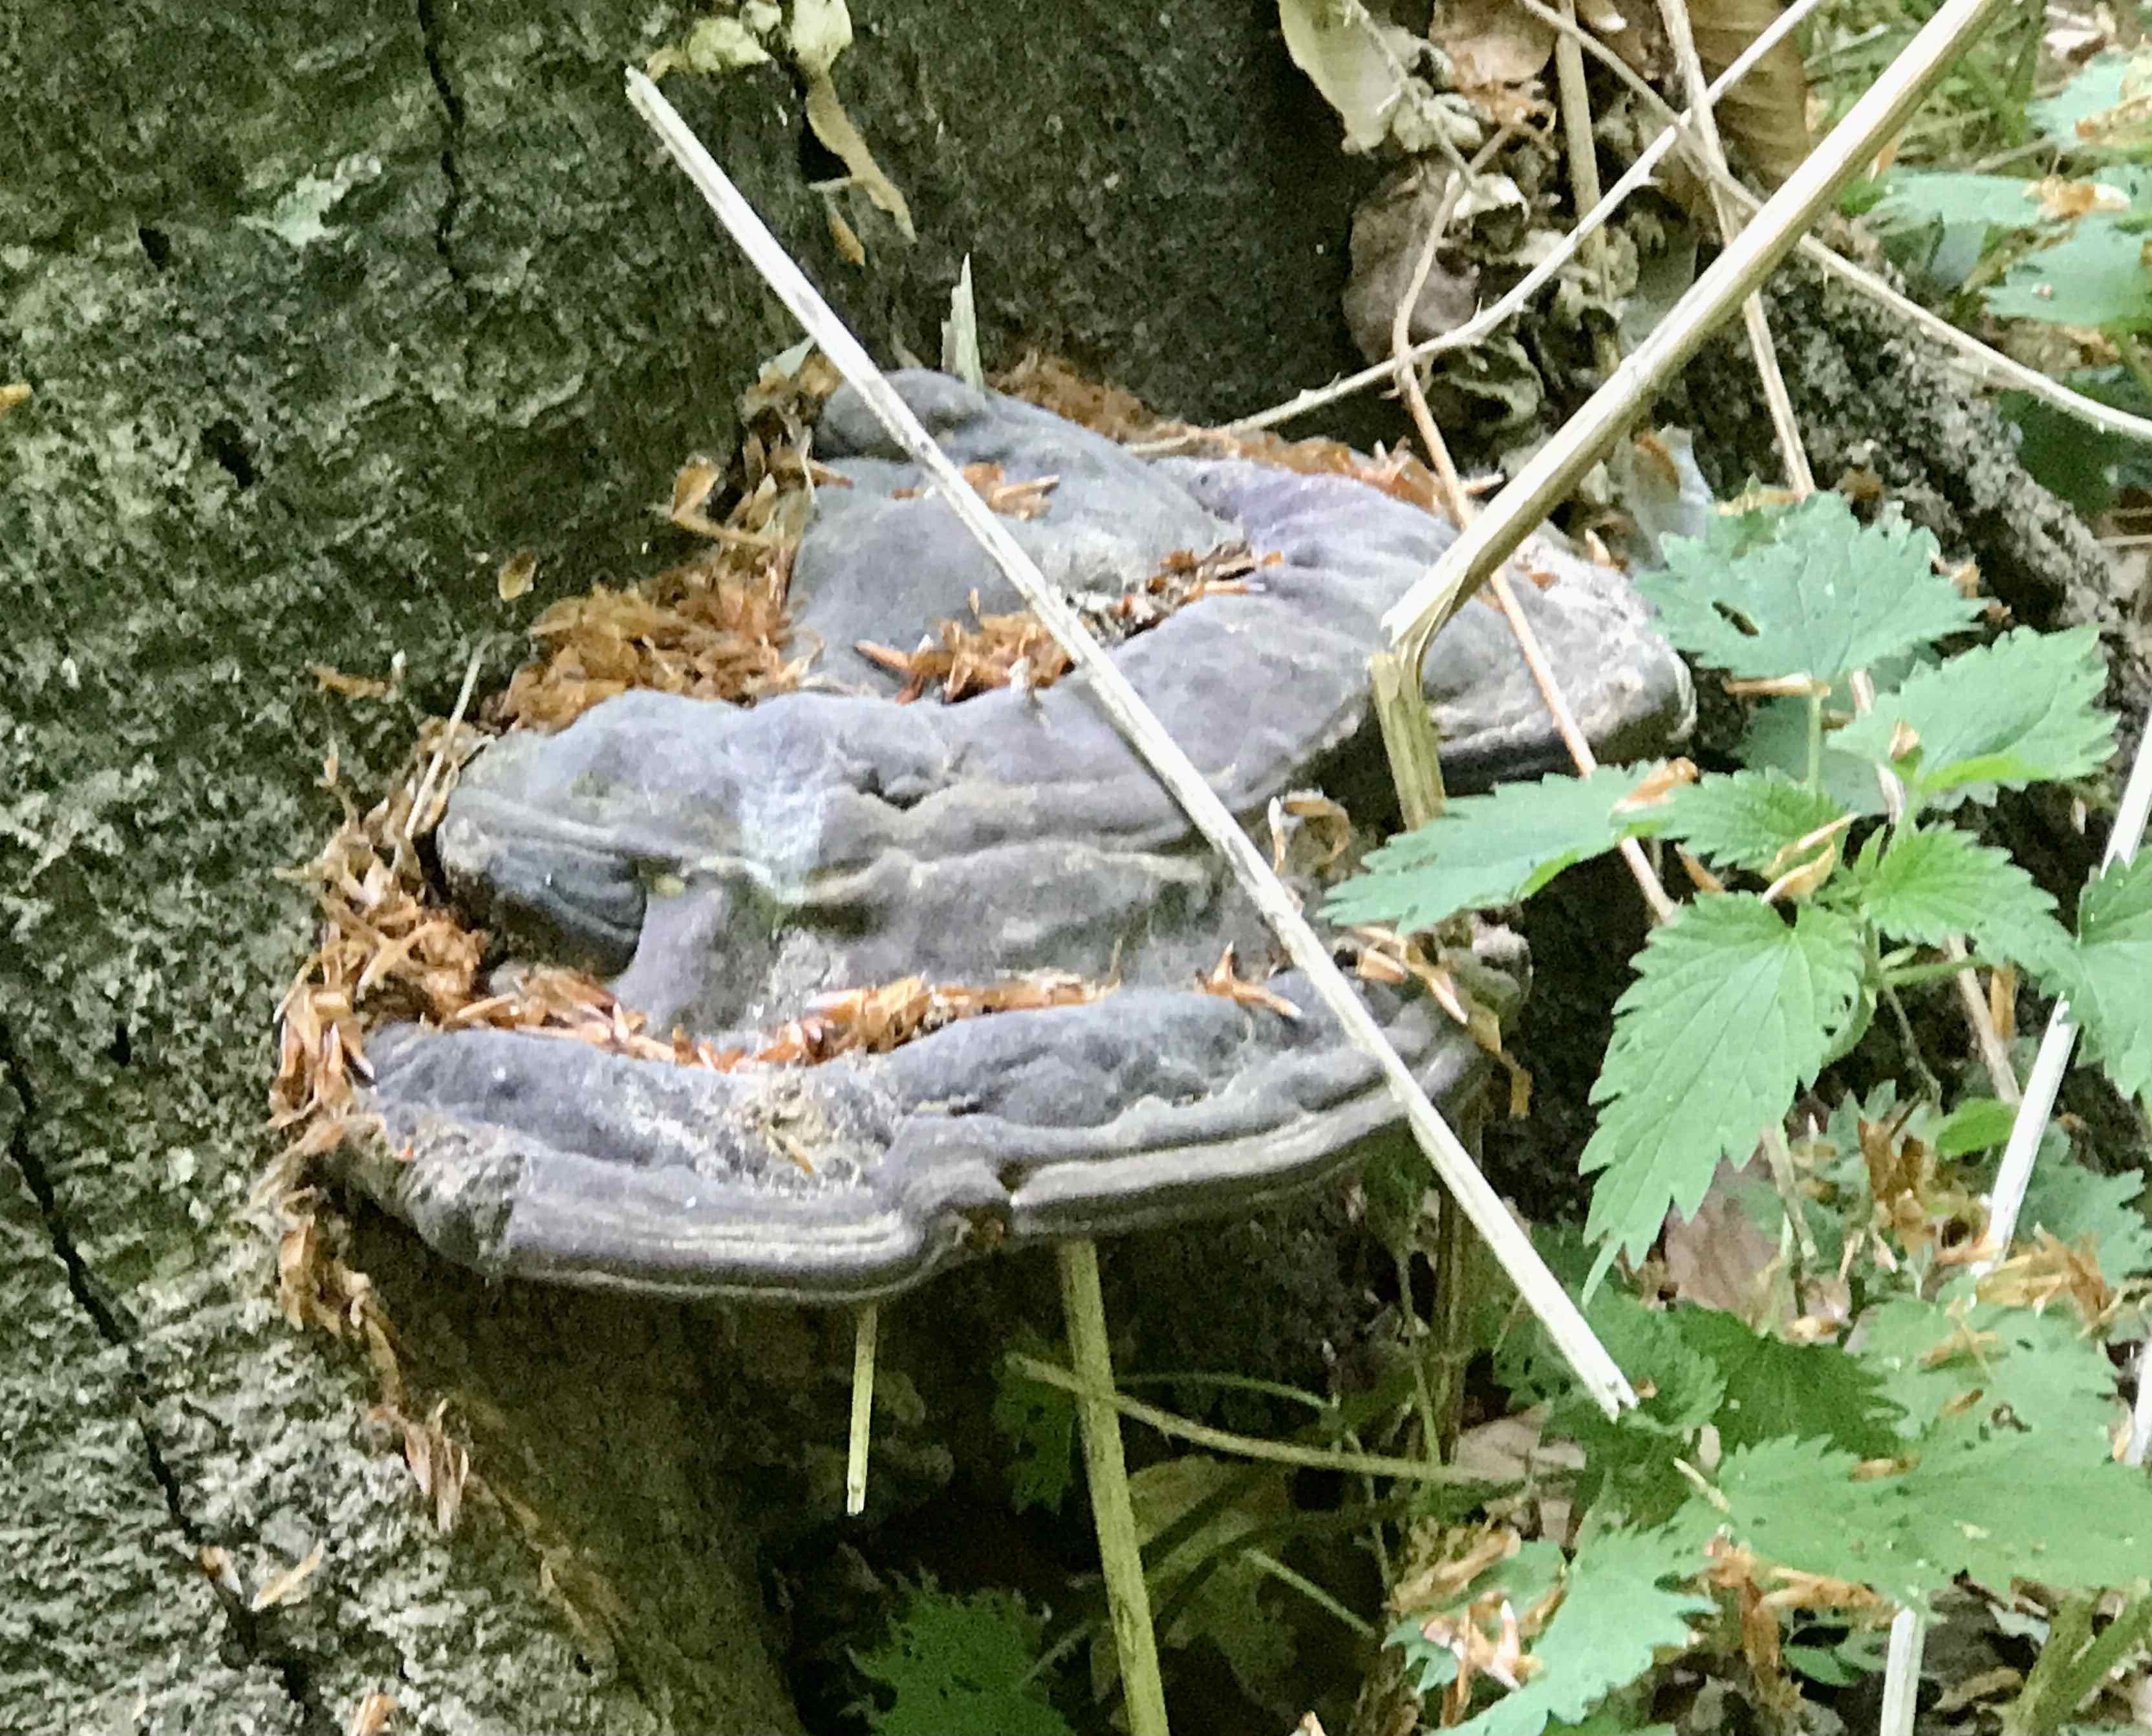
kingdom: Fungi
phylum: Basidiomycota
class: Agaricomycetes
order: Polyporales
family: Polyporaceae
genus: Ganoderma
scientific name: Ganoderma pfeifferi
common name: kobberrød lakporesvamp
